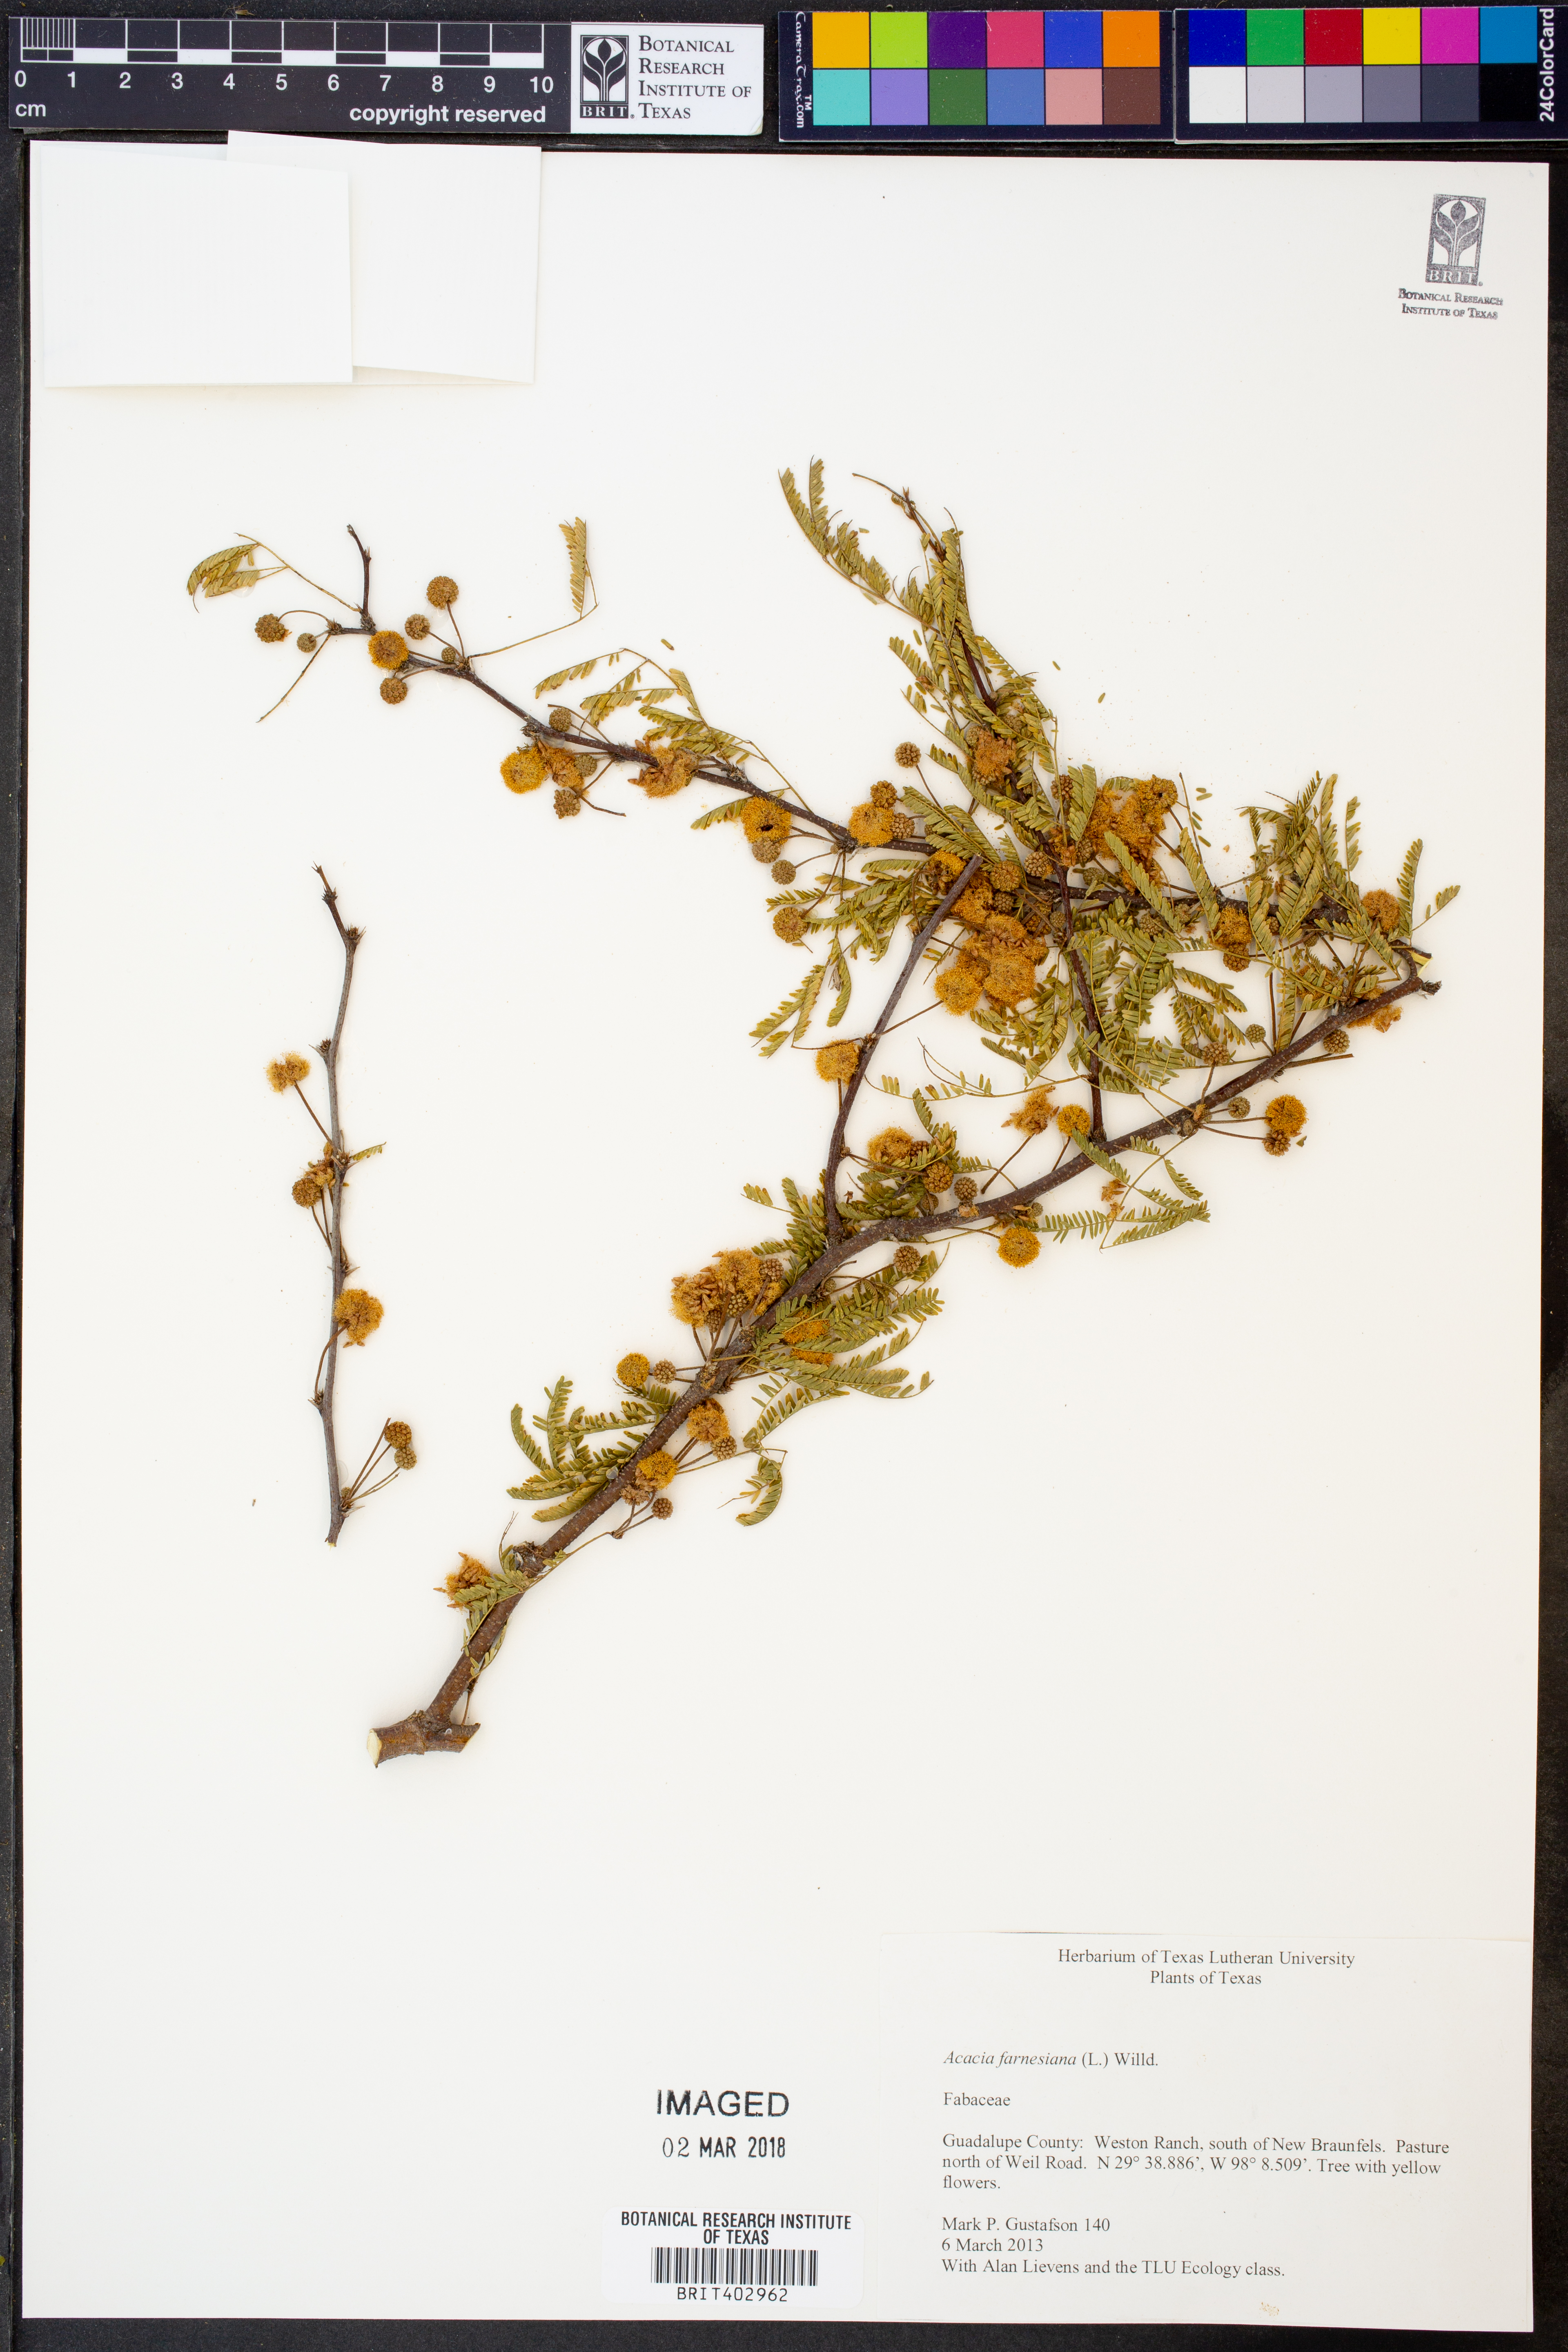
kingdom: Plantae
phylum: Tracheophyta
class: Magnoliopsida
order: Fabales
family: Fabaceae
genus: Vachellia
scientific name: Vachellia farnesiana
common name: Sweet acacia
